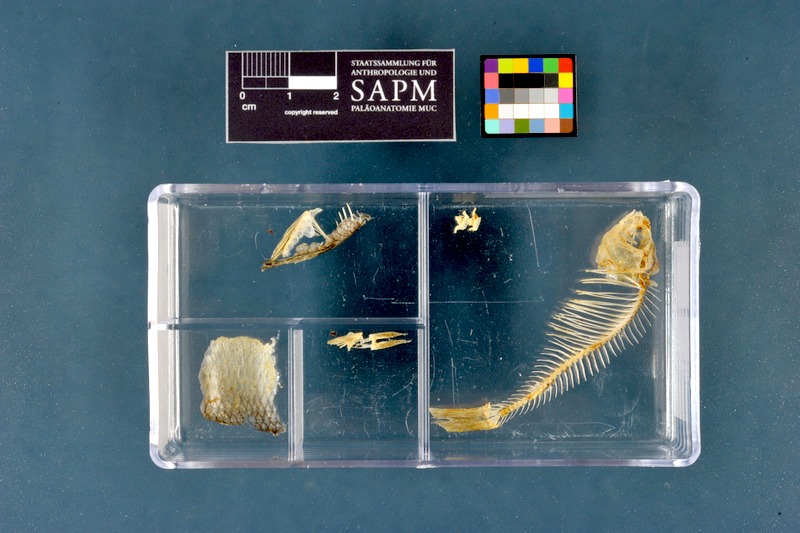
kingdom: Animalia
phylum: Chordata
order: Cypriniformes
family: Cyprinidae
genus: Rhodeus
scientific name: Rhodeus amarus
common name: Bitterling
